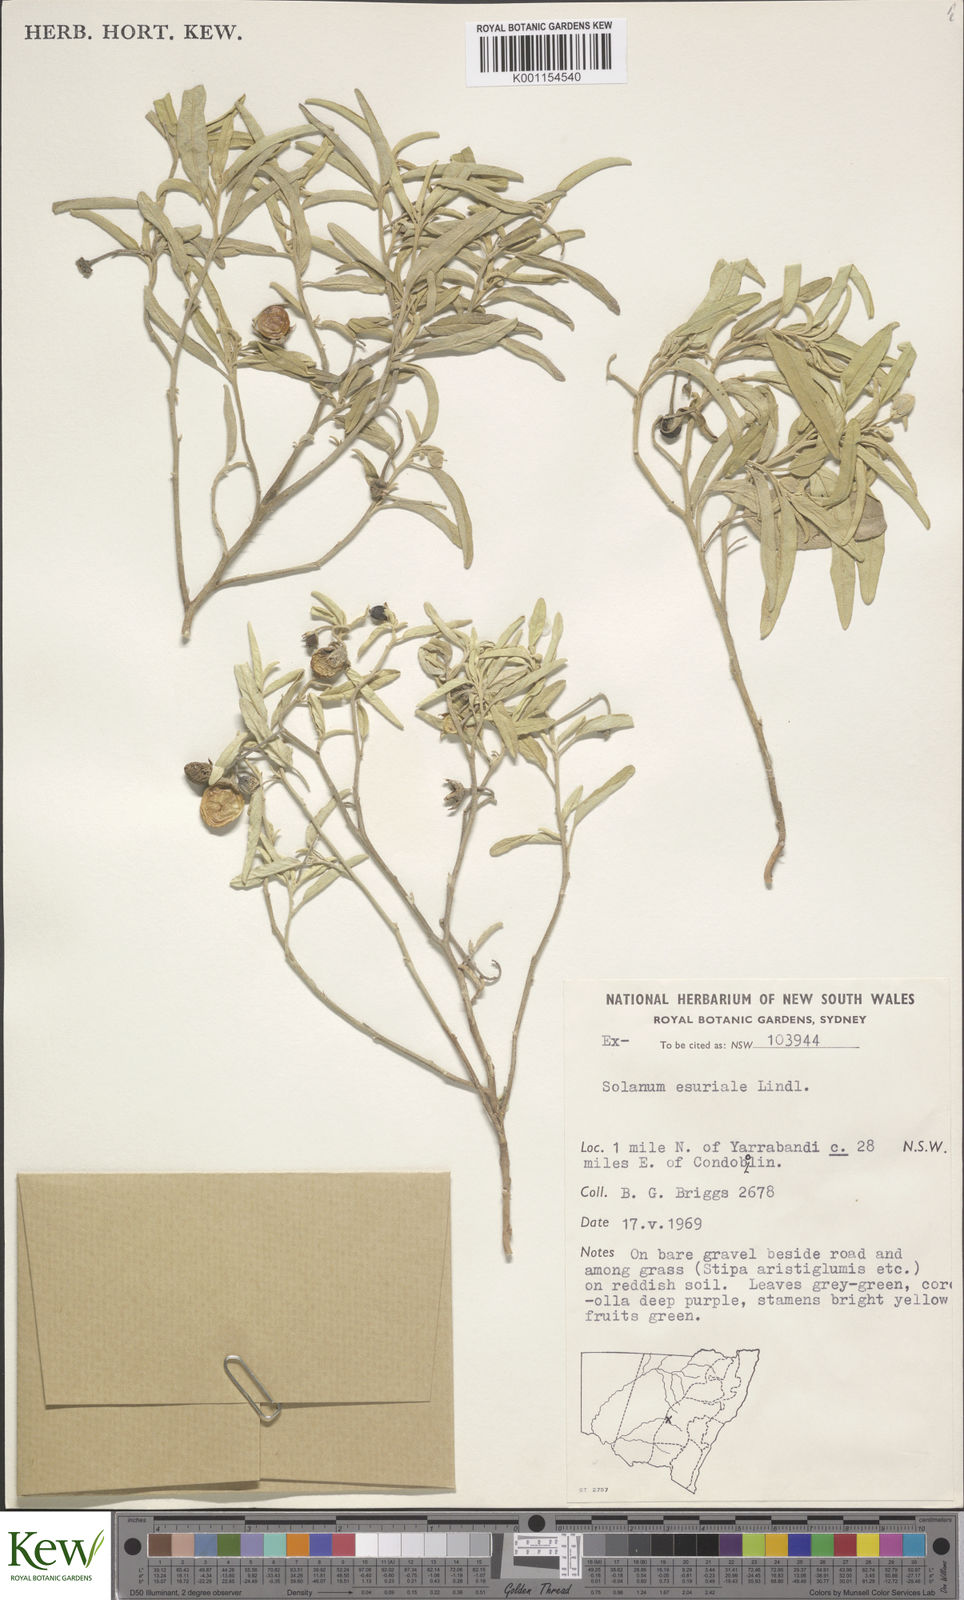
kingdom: Plantae
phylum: Tracheophyta
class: Magnoliopsida
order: Solanales
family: Solanaceae
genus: Solanum
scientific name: Solanum esuriale
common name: Wild tomato
